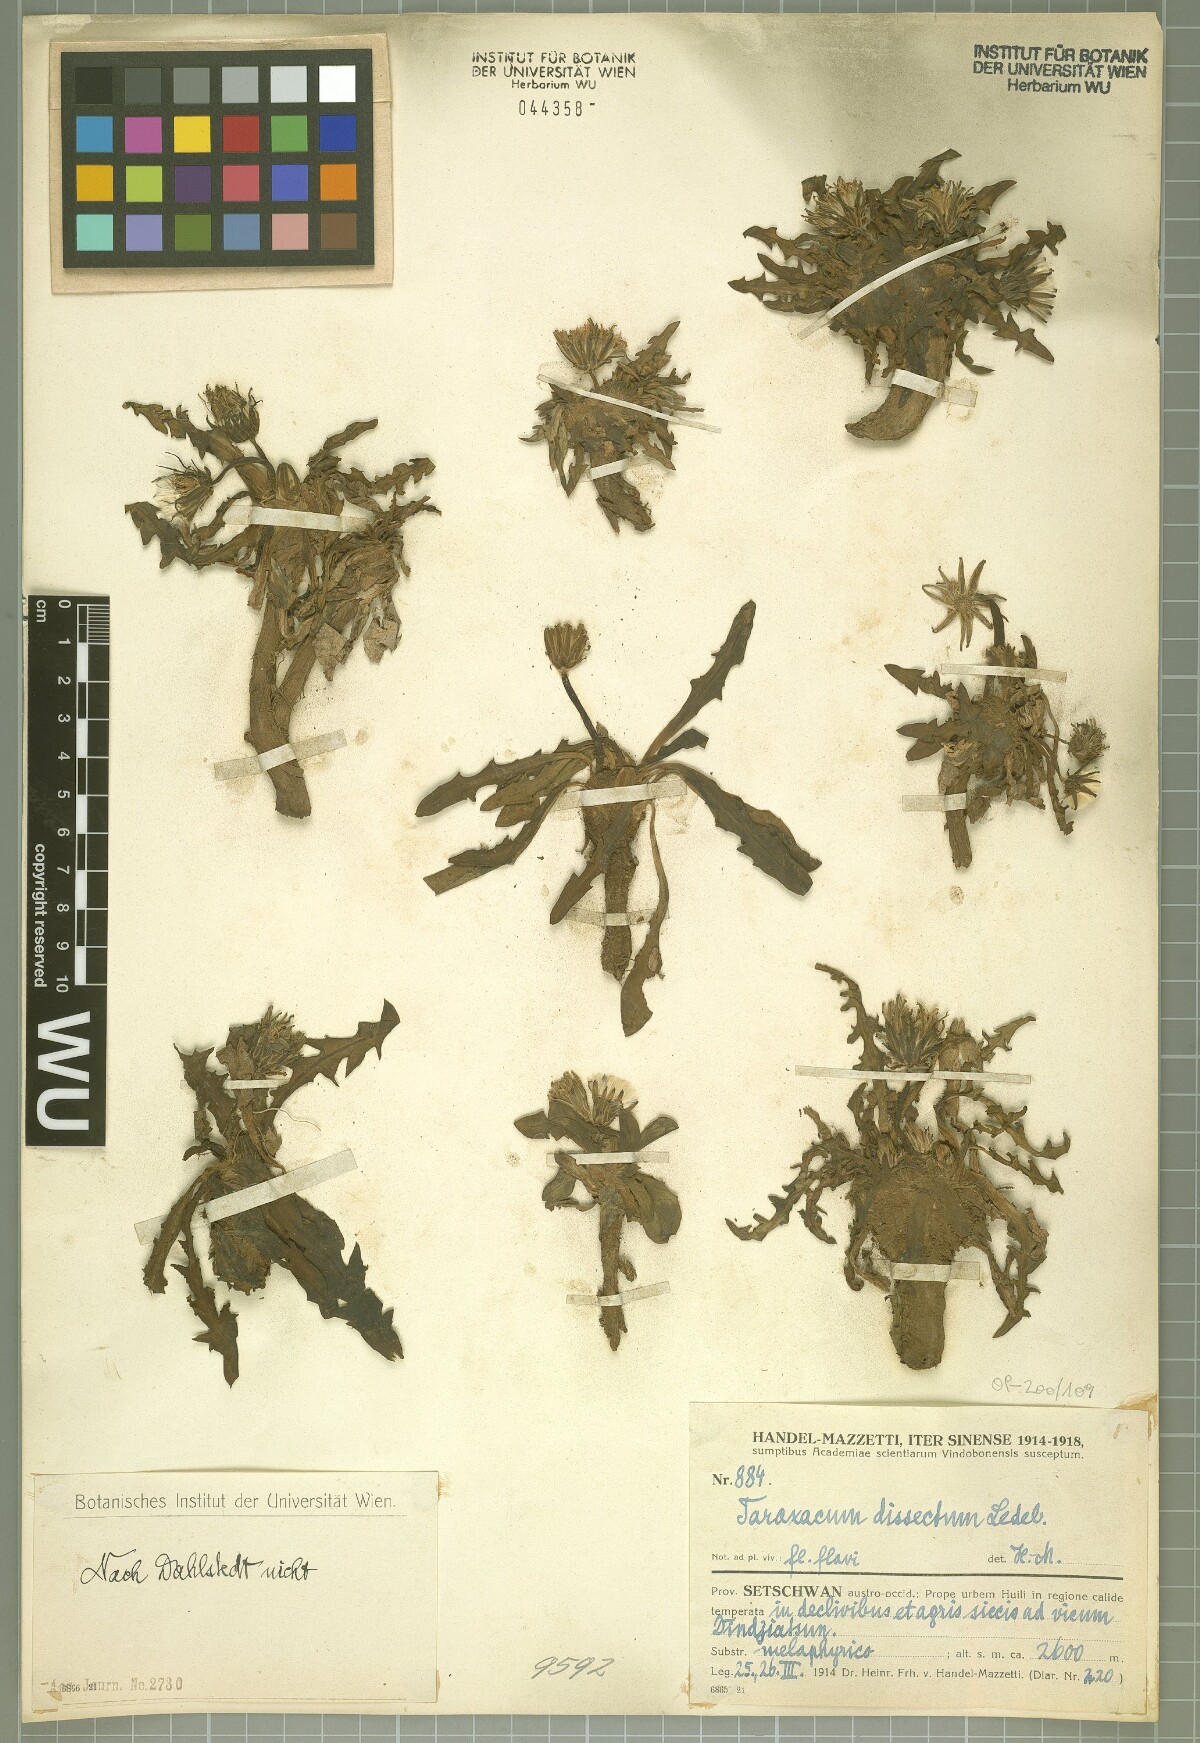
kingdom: Plantae
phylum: Tracheophyta
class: Magnoliopsida
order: Asterales
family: Asteraceae
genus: Taraxacum
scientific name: Taraxacum dissectum
